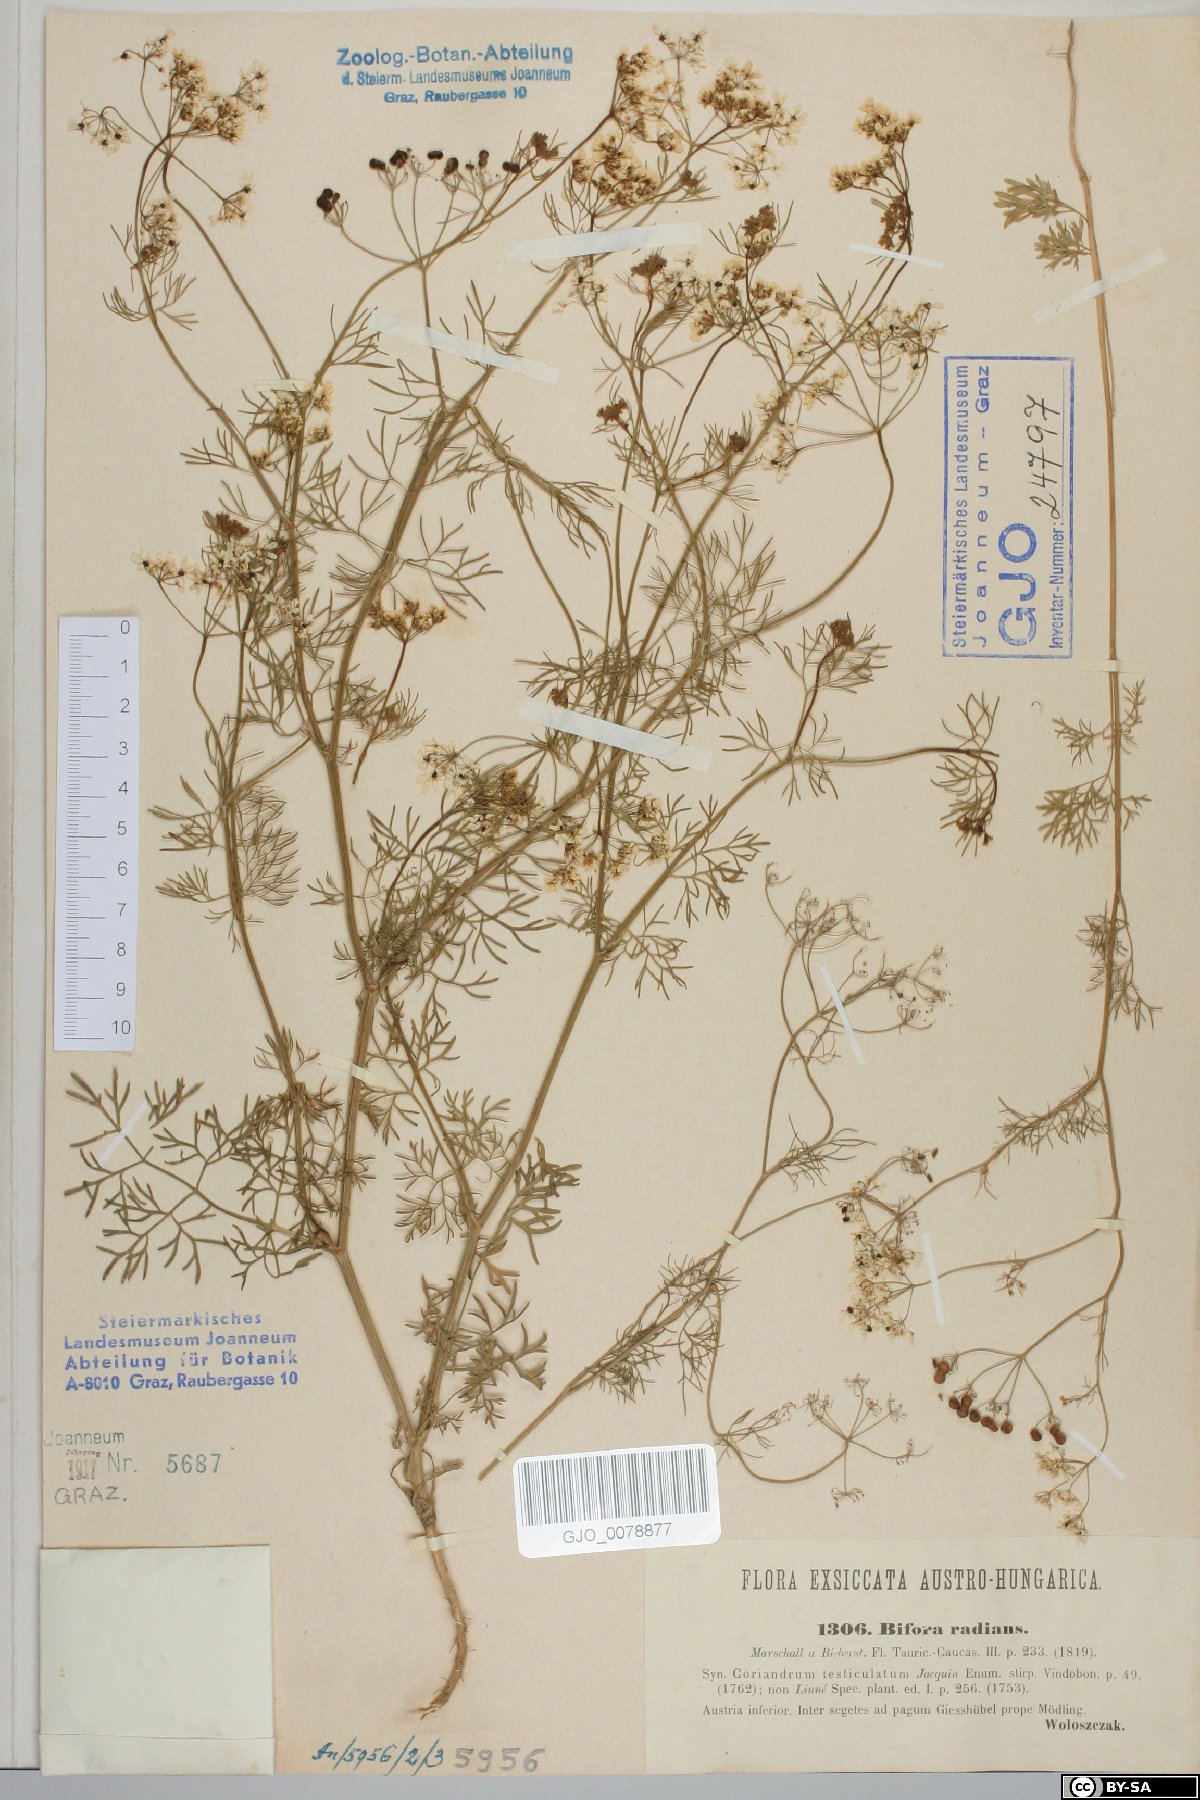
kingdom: Plantae
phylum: Tracheophyta
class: Magnoliopsida
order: Apiales
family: Apiaceae
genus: Bifora
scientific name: Bifora radians
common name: Wild bishop
